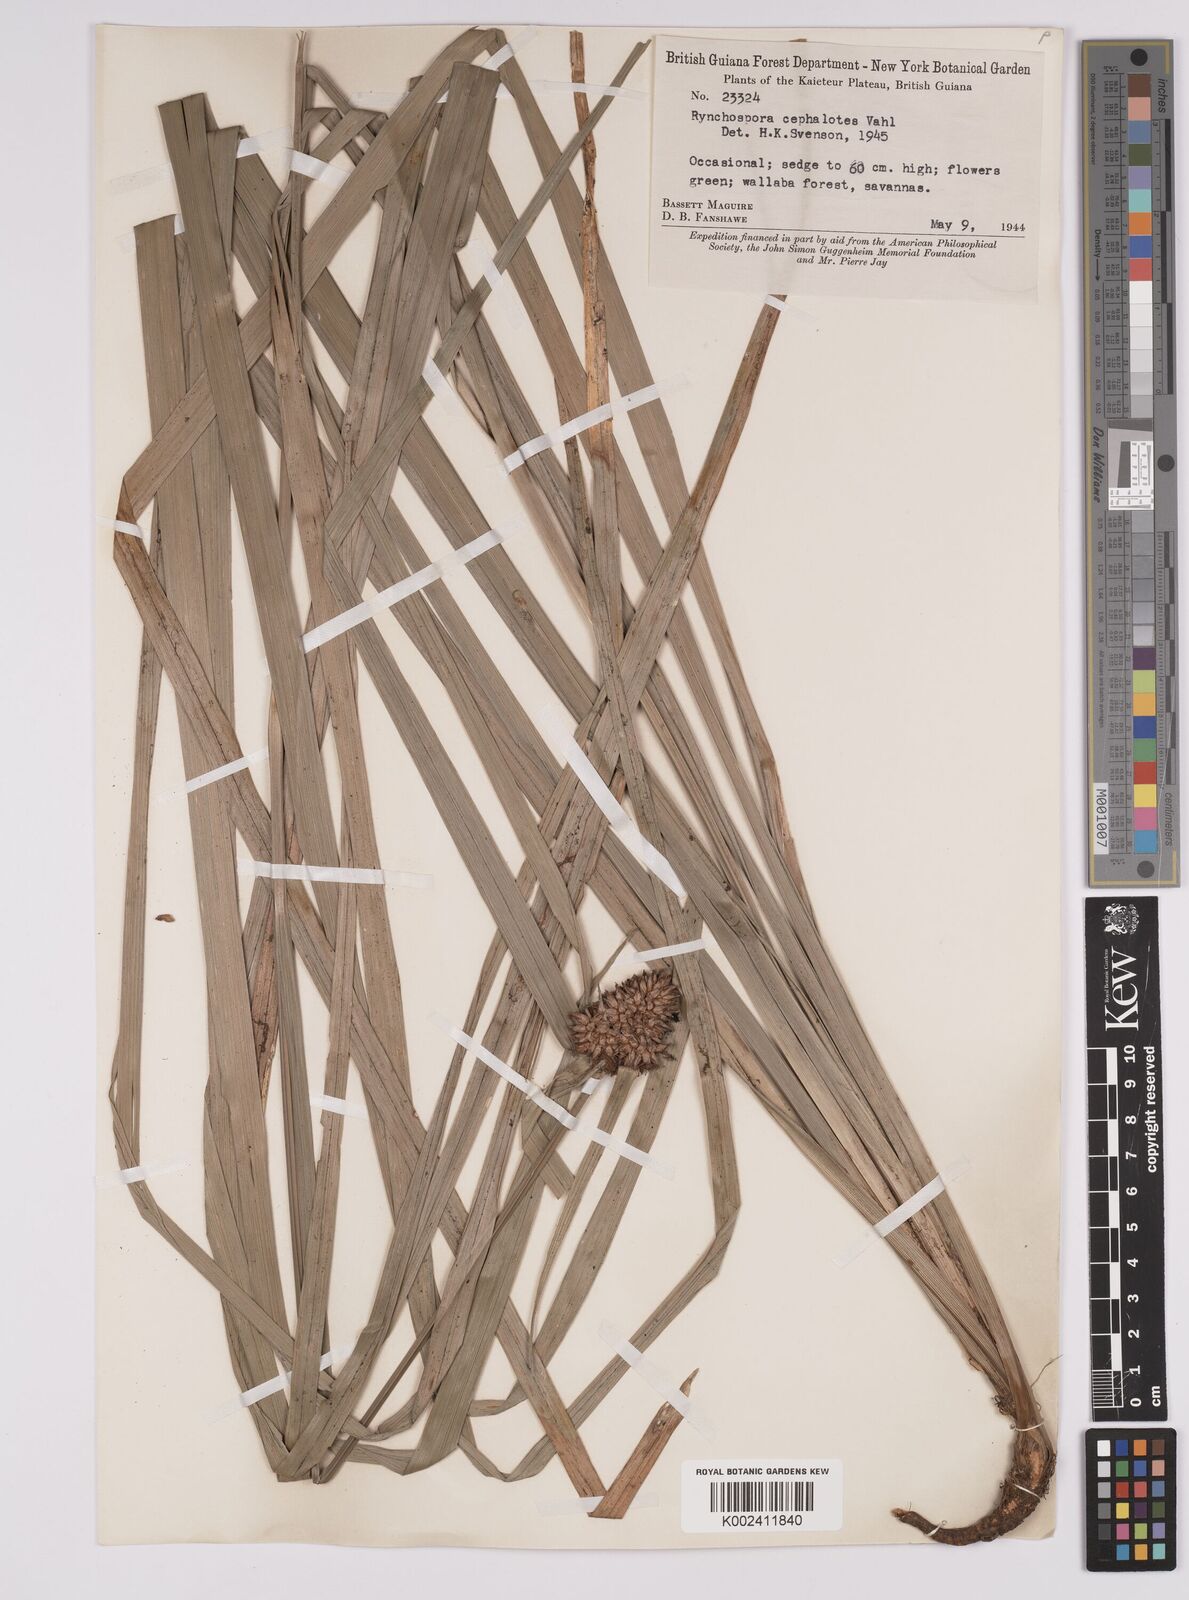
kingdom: Plantae
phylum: Tracheophyta
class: Liliopsida
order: Poales
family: Cyperaceae
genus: Rhynchospora
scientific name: Rhynchospora cephalotes
